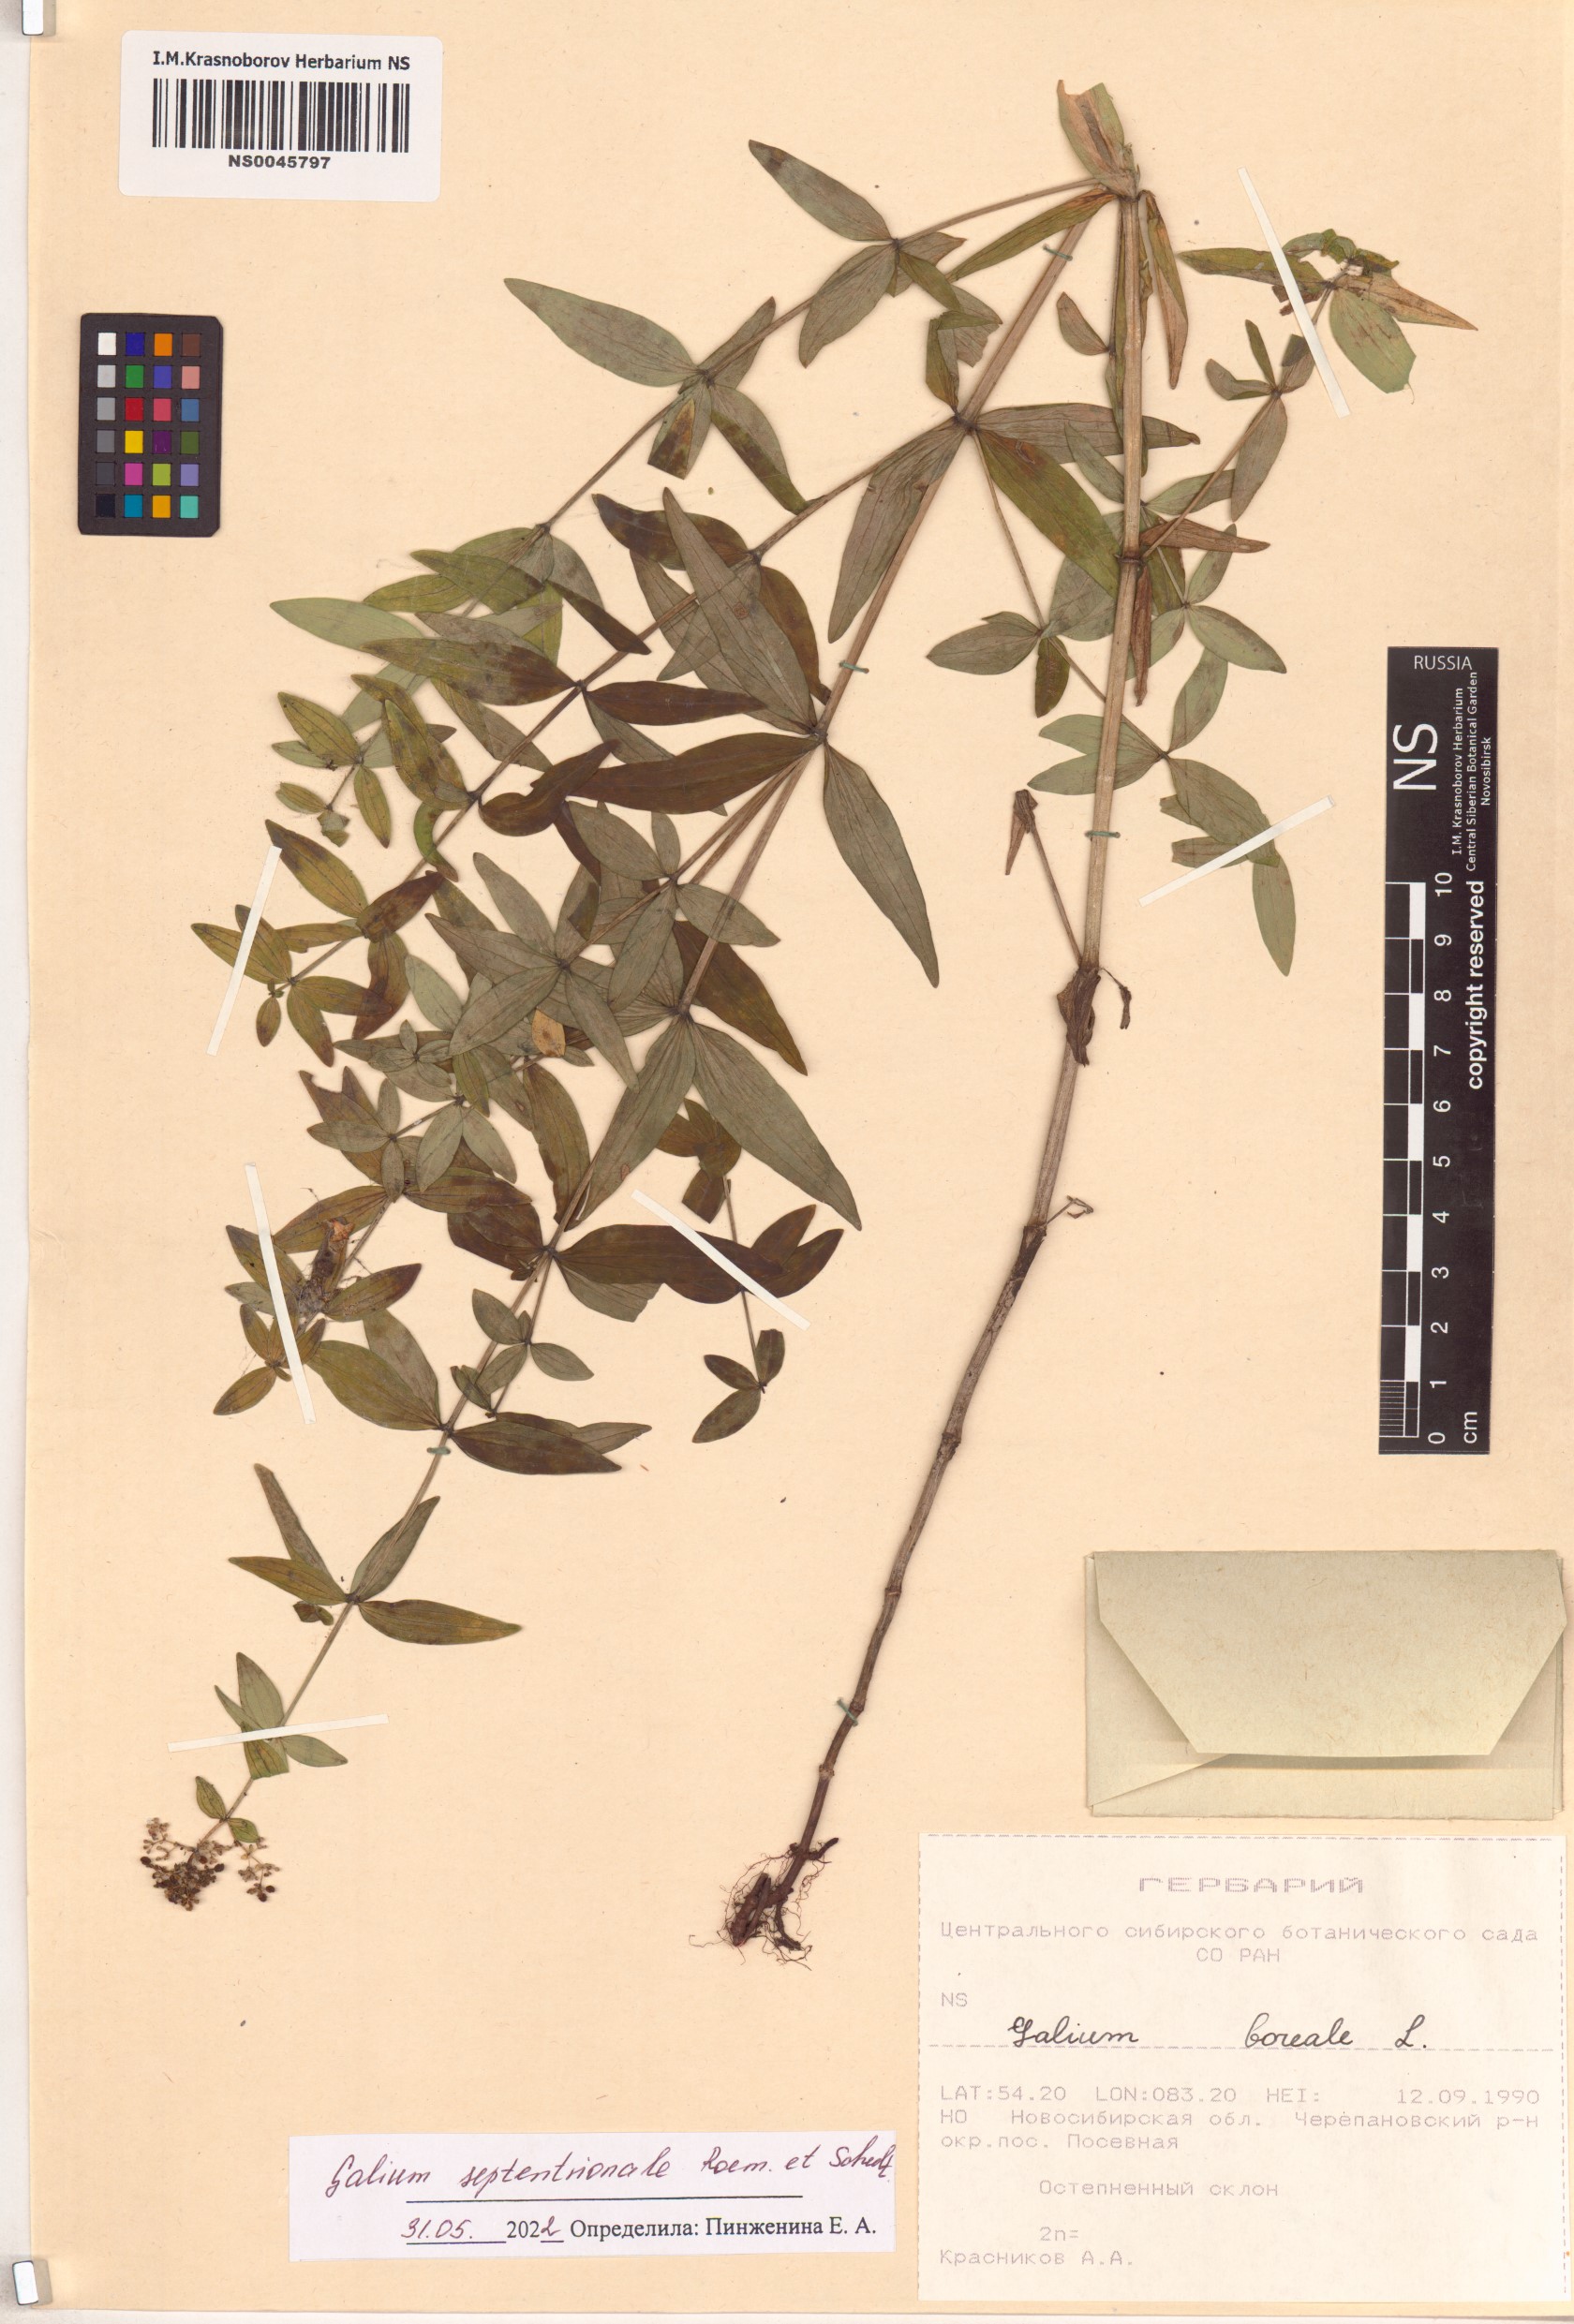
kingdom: Plantae
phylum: Tracheophyta
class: Magnoliopsida
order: Gentianales
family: Rubiaceae
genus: Galium
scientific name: Galium boreale
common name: Northern bedstraw
